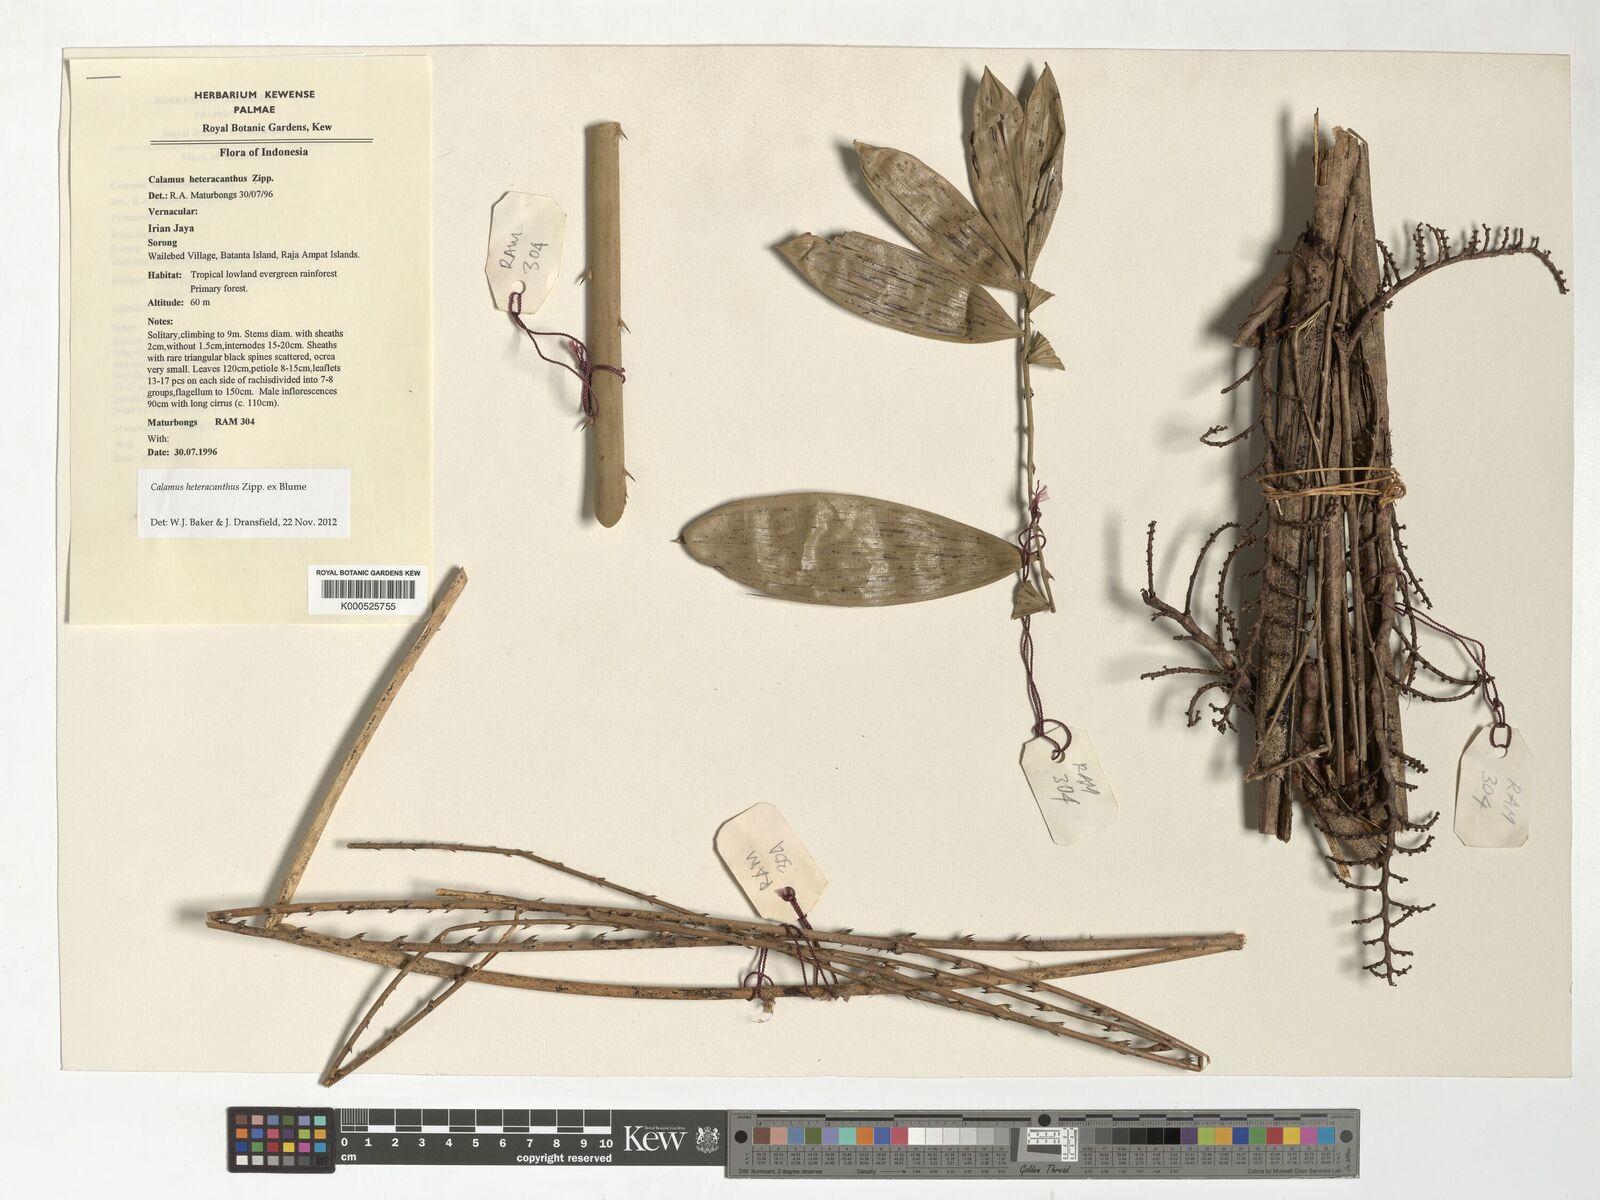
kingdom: Plantae
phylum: Tracheophyta
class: Liliopsida
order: Arecales
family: Arecaceae
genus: Calamus
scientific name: Calamus heteracanthus
